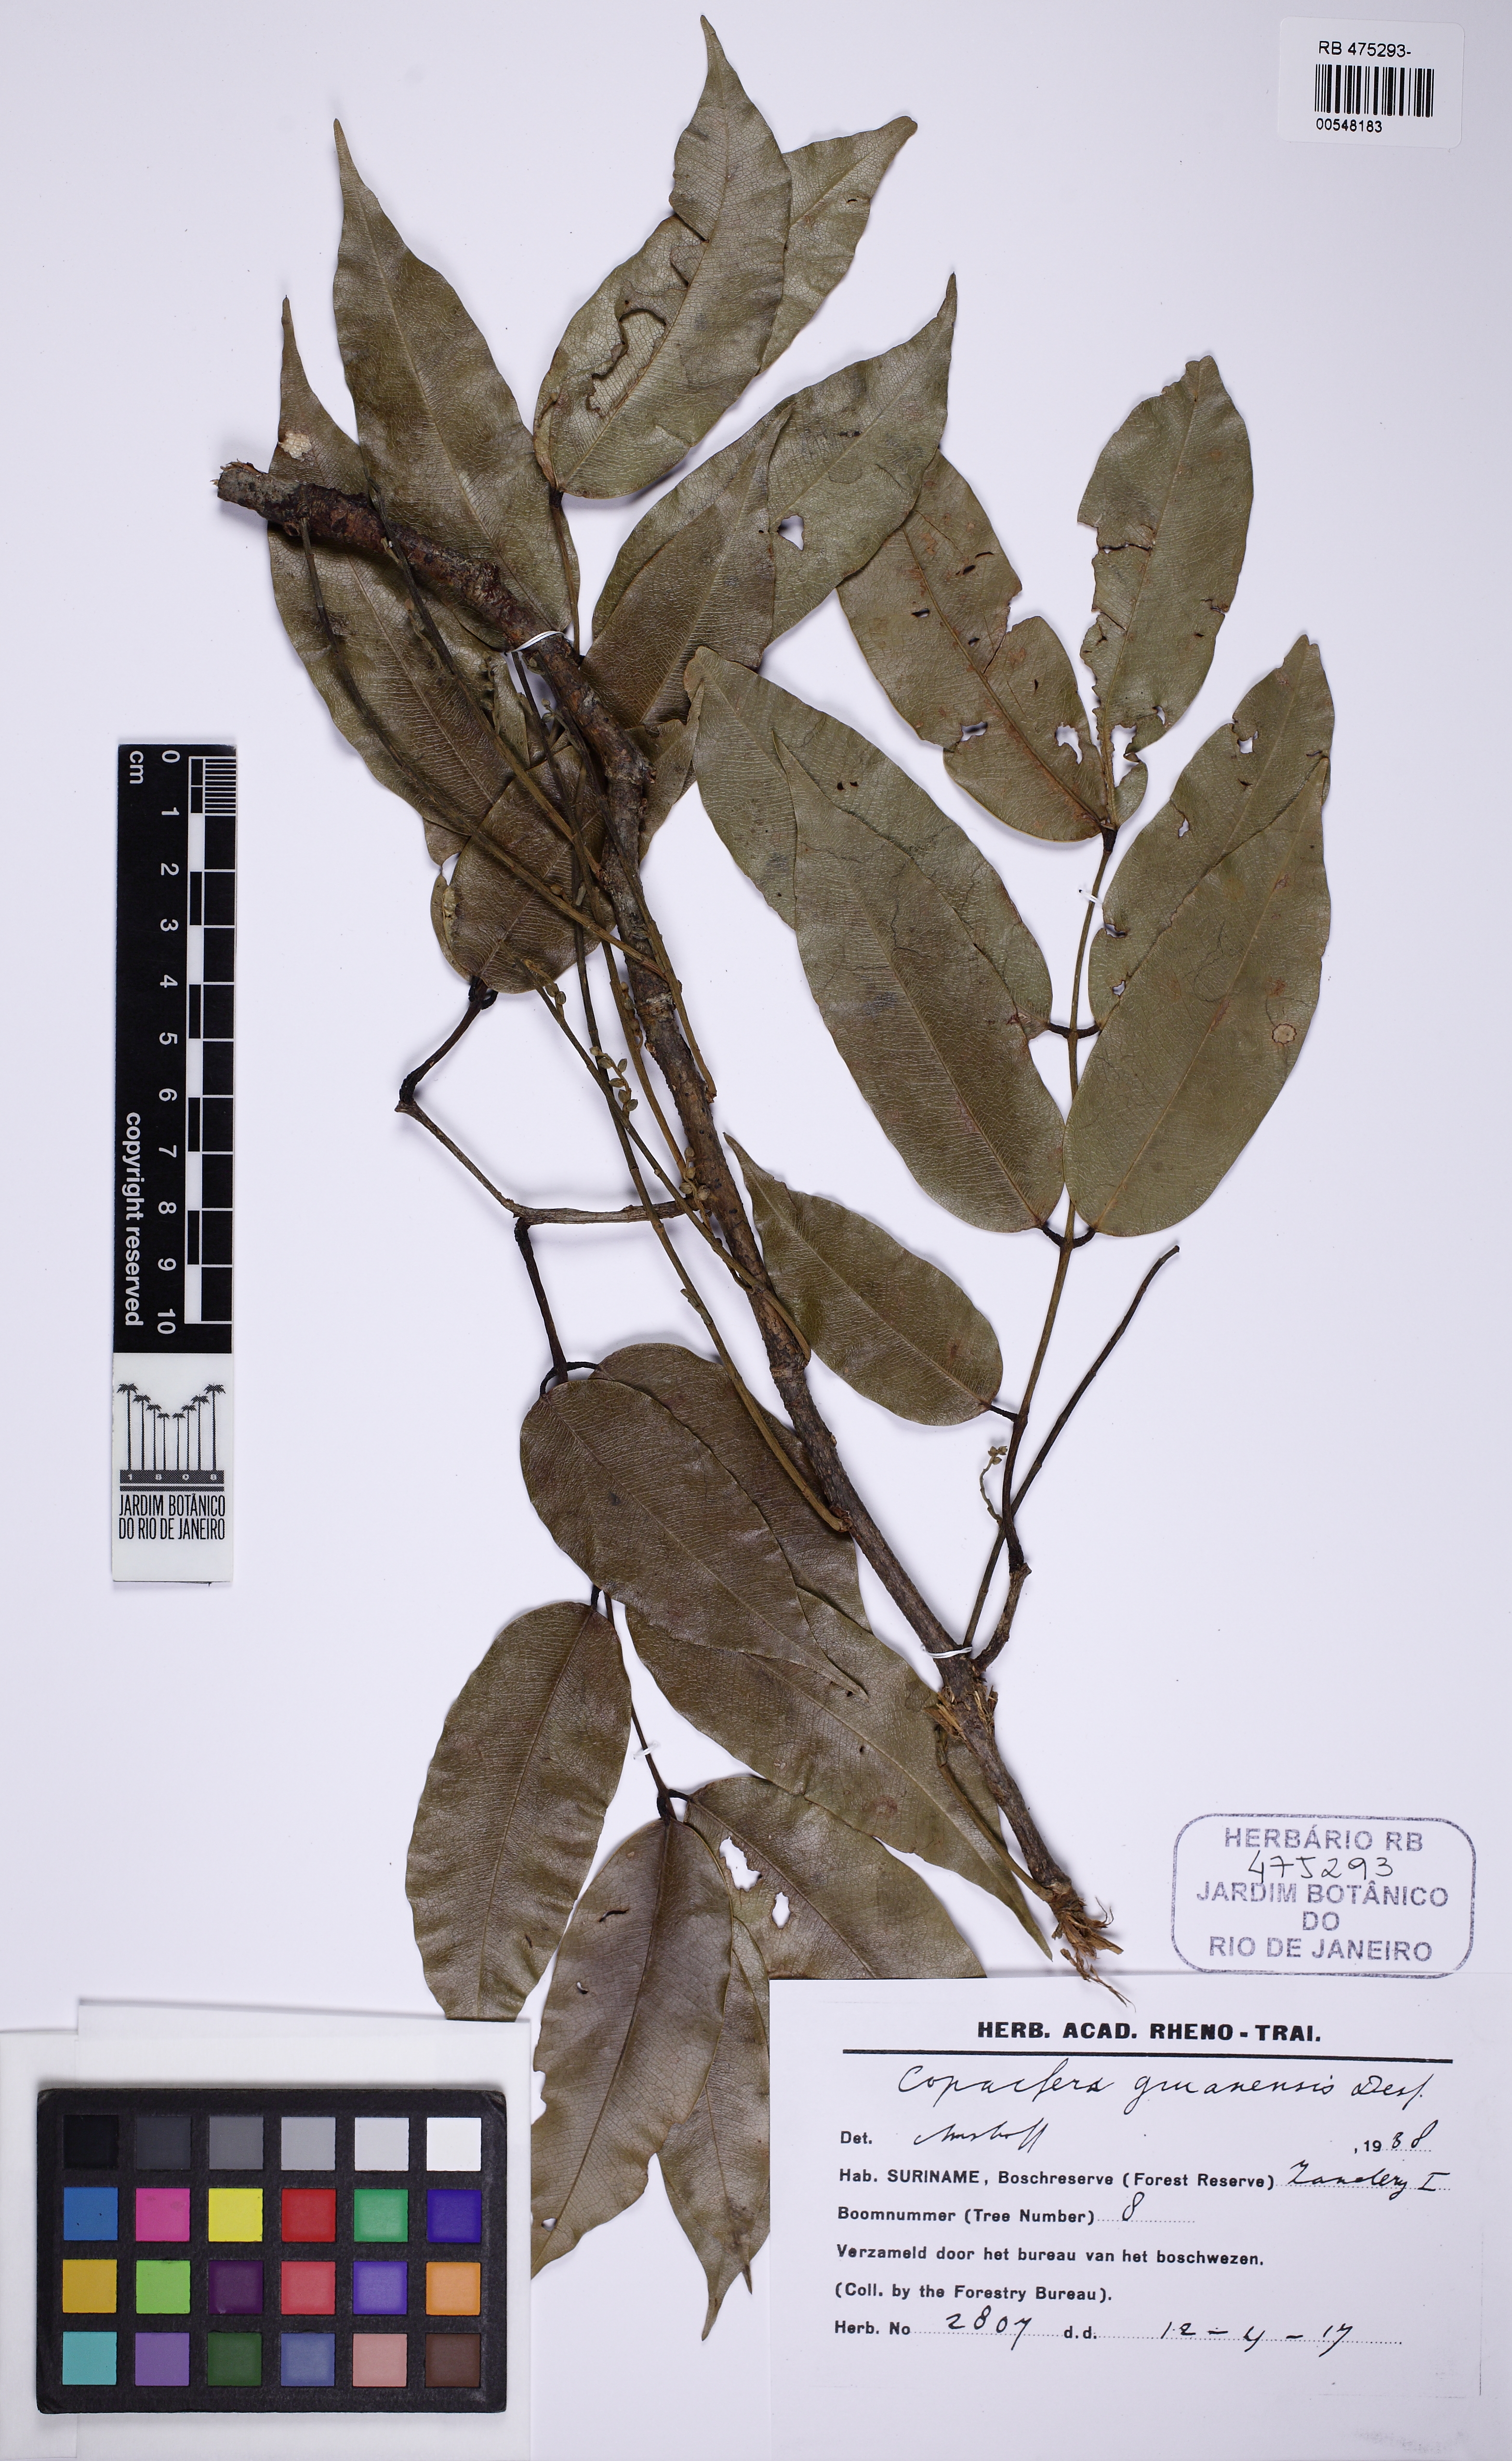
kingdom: Plantae
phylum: Tracheophyta
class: Magnoliopsida
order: Fabales
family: Fabaceae
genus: Copaifera
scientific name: Copaifera guianensis
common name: Copaiba
